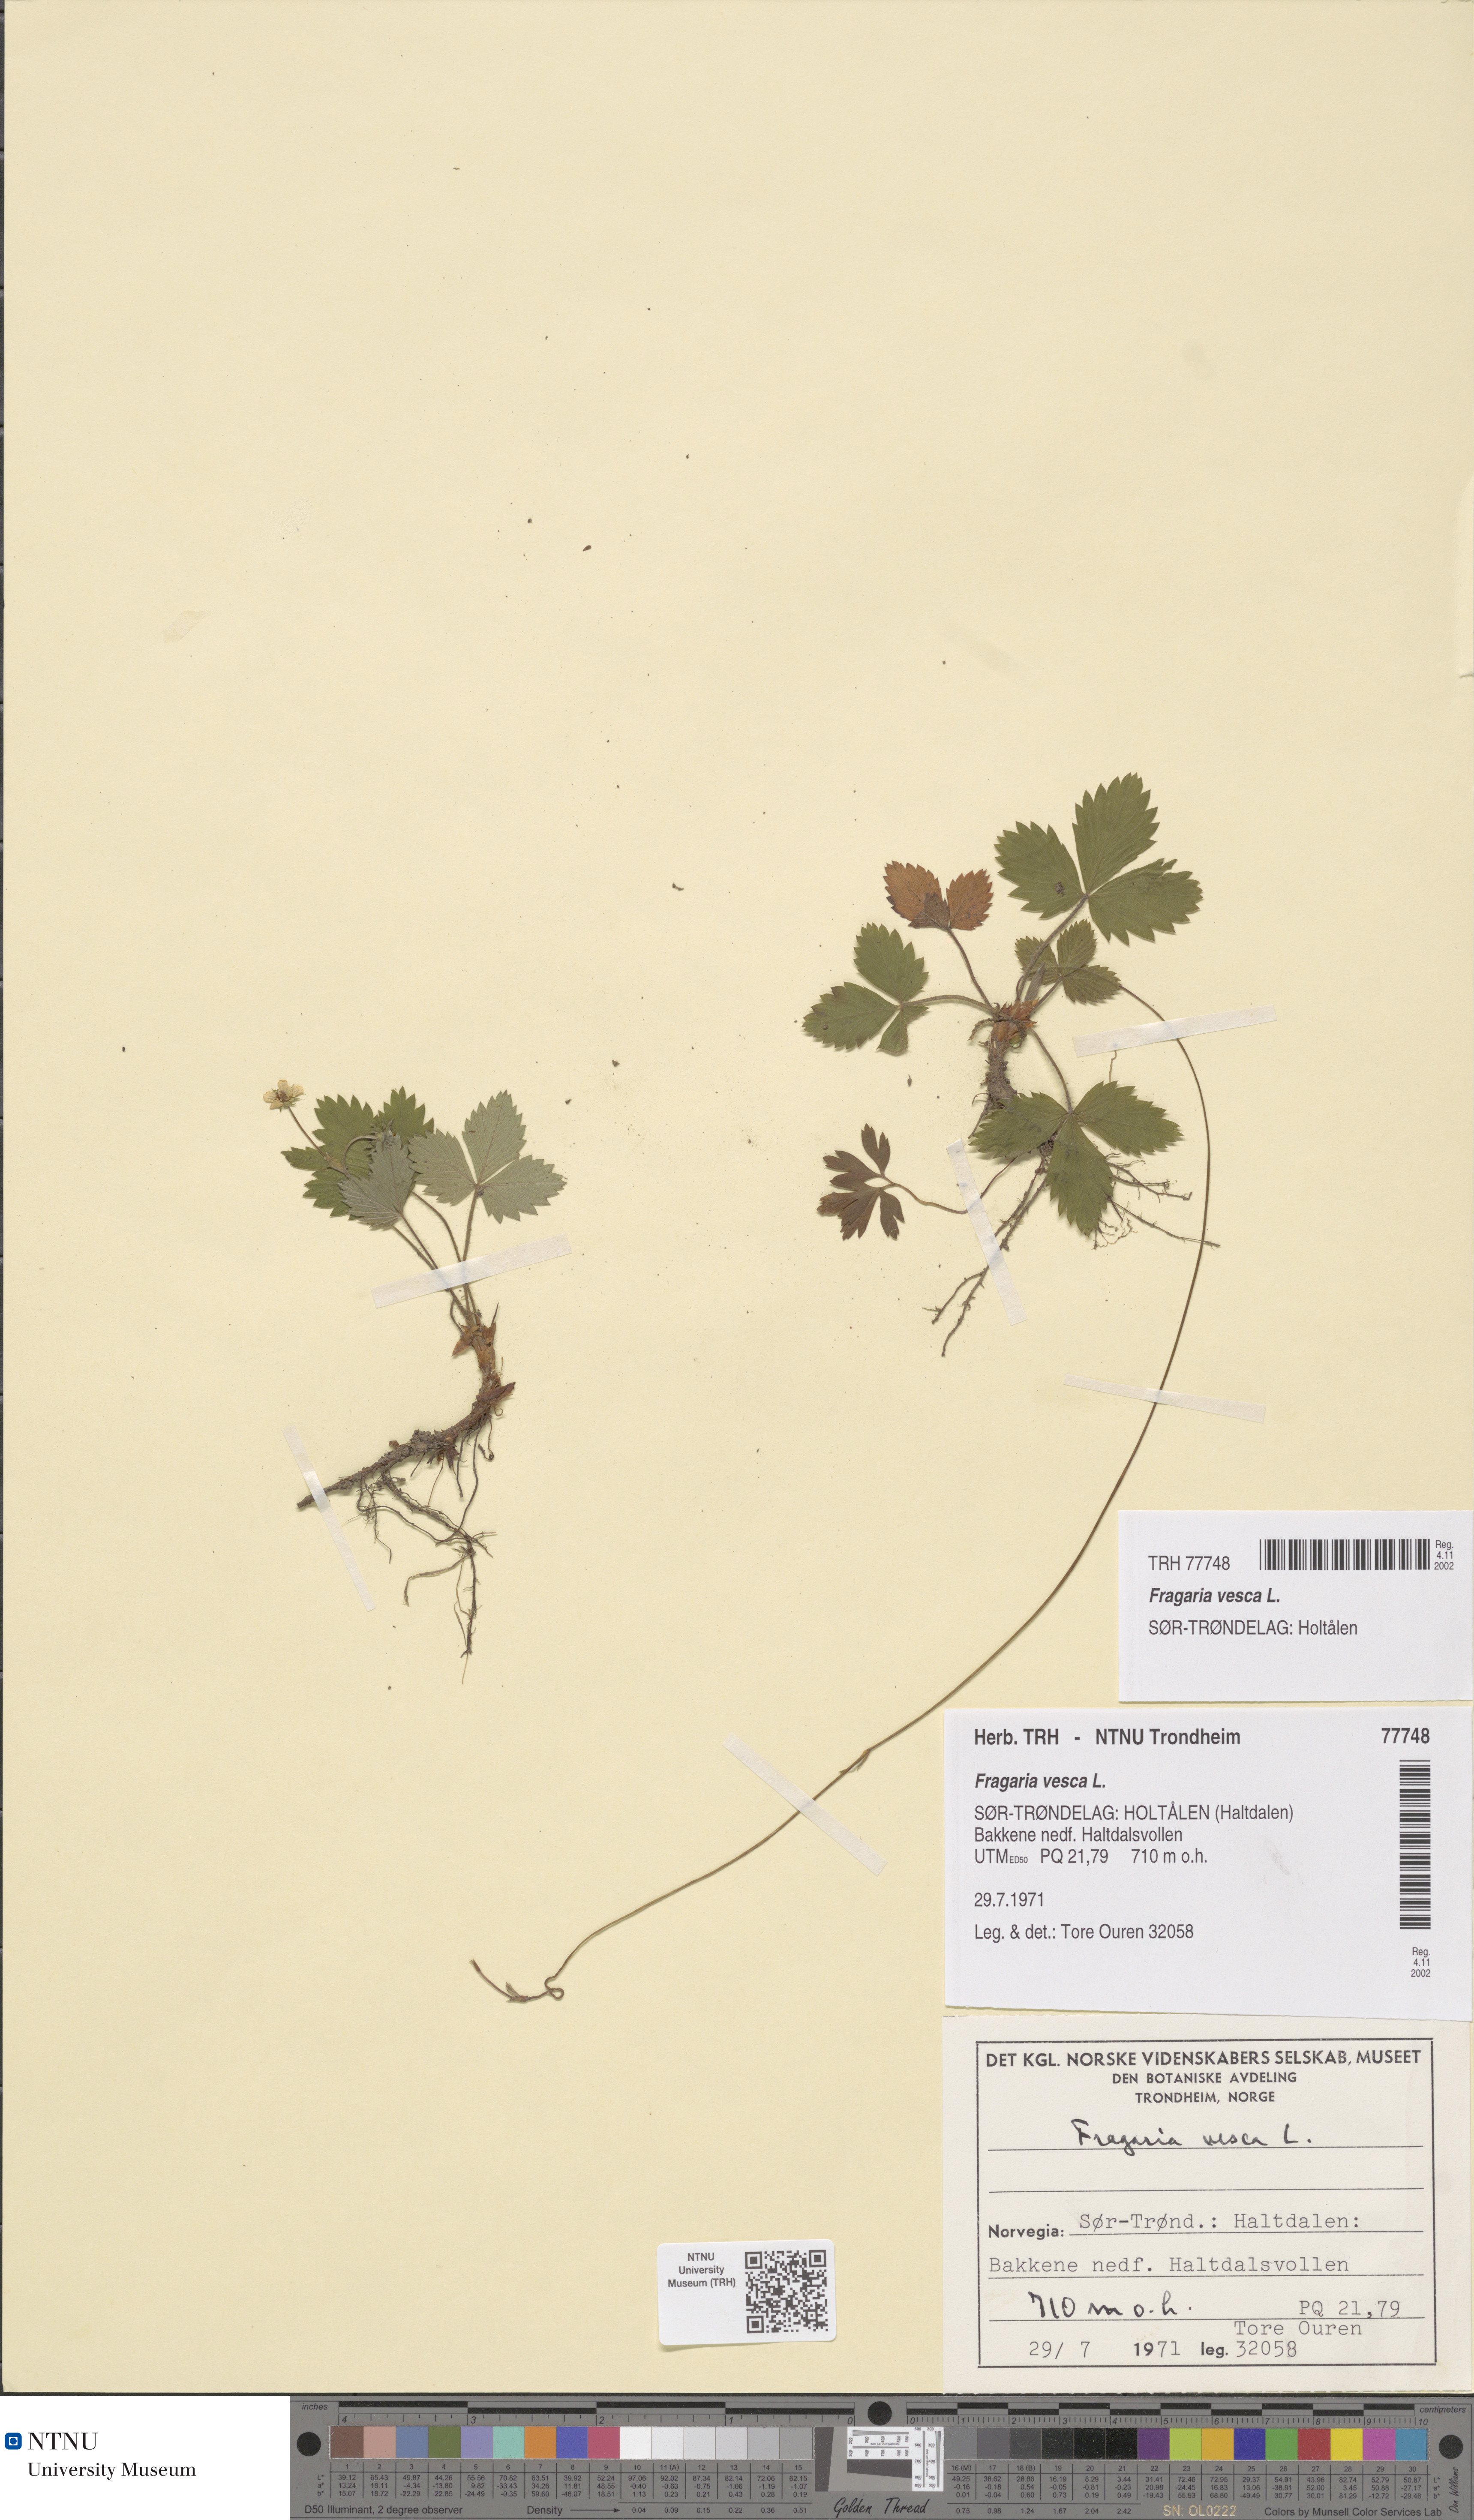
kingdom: Plantae
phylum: Tracheophyta
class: Magnoliopsida
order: Rosales
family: Rosaceae
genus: Fragaria
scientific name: Fragaria vesca
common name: Wild strawberry
